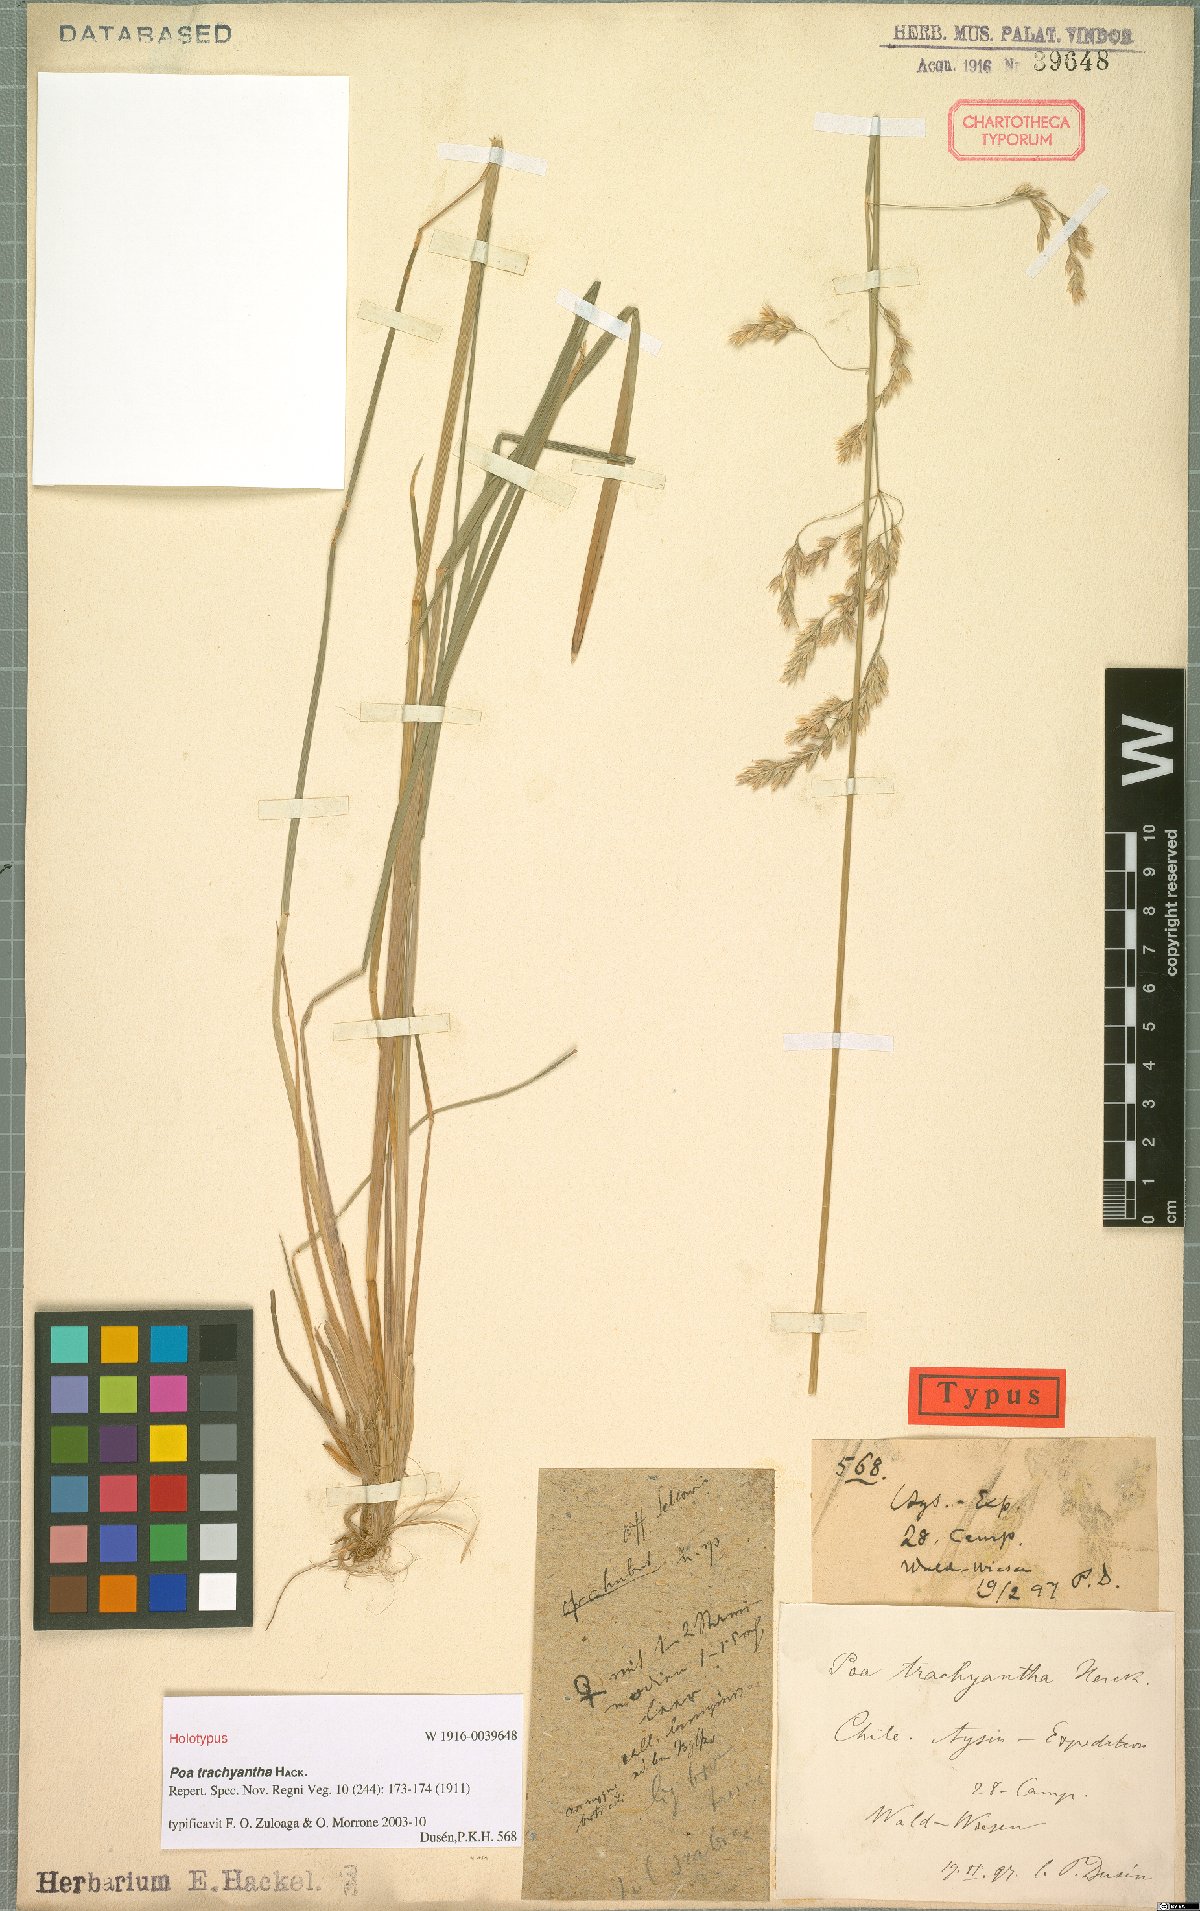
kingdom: Plantae
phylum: Tracheophyta
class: Liliopsida
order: Poales
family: Poaceae
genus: Poa
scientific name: Poa trachyantha
